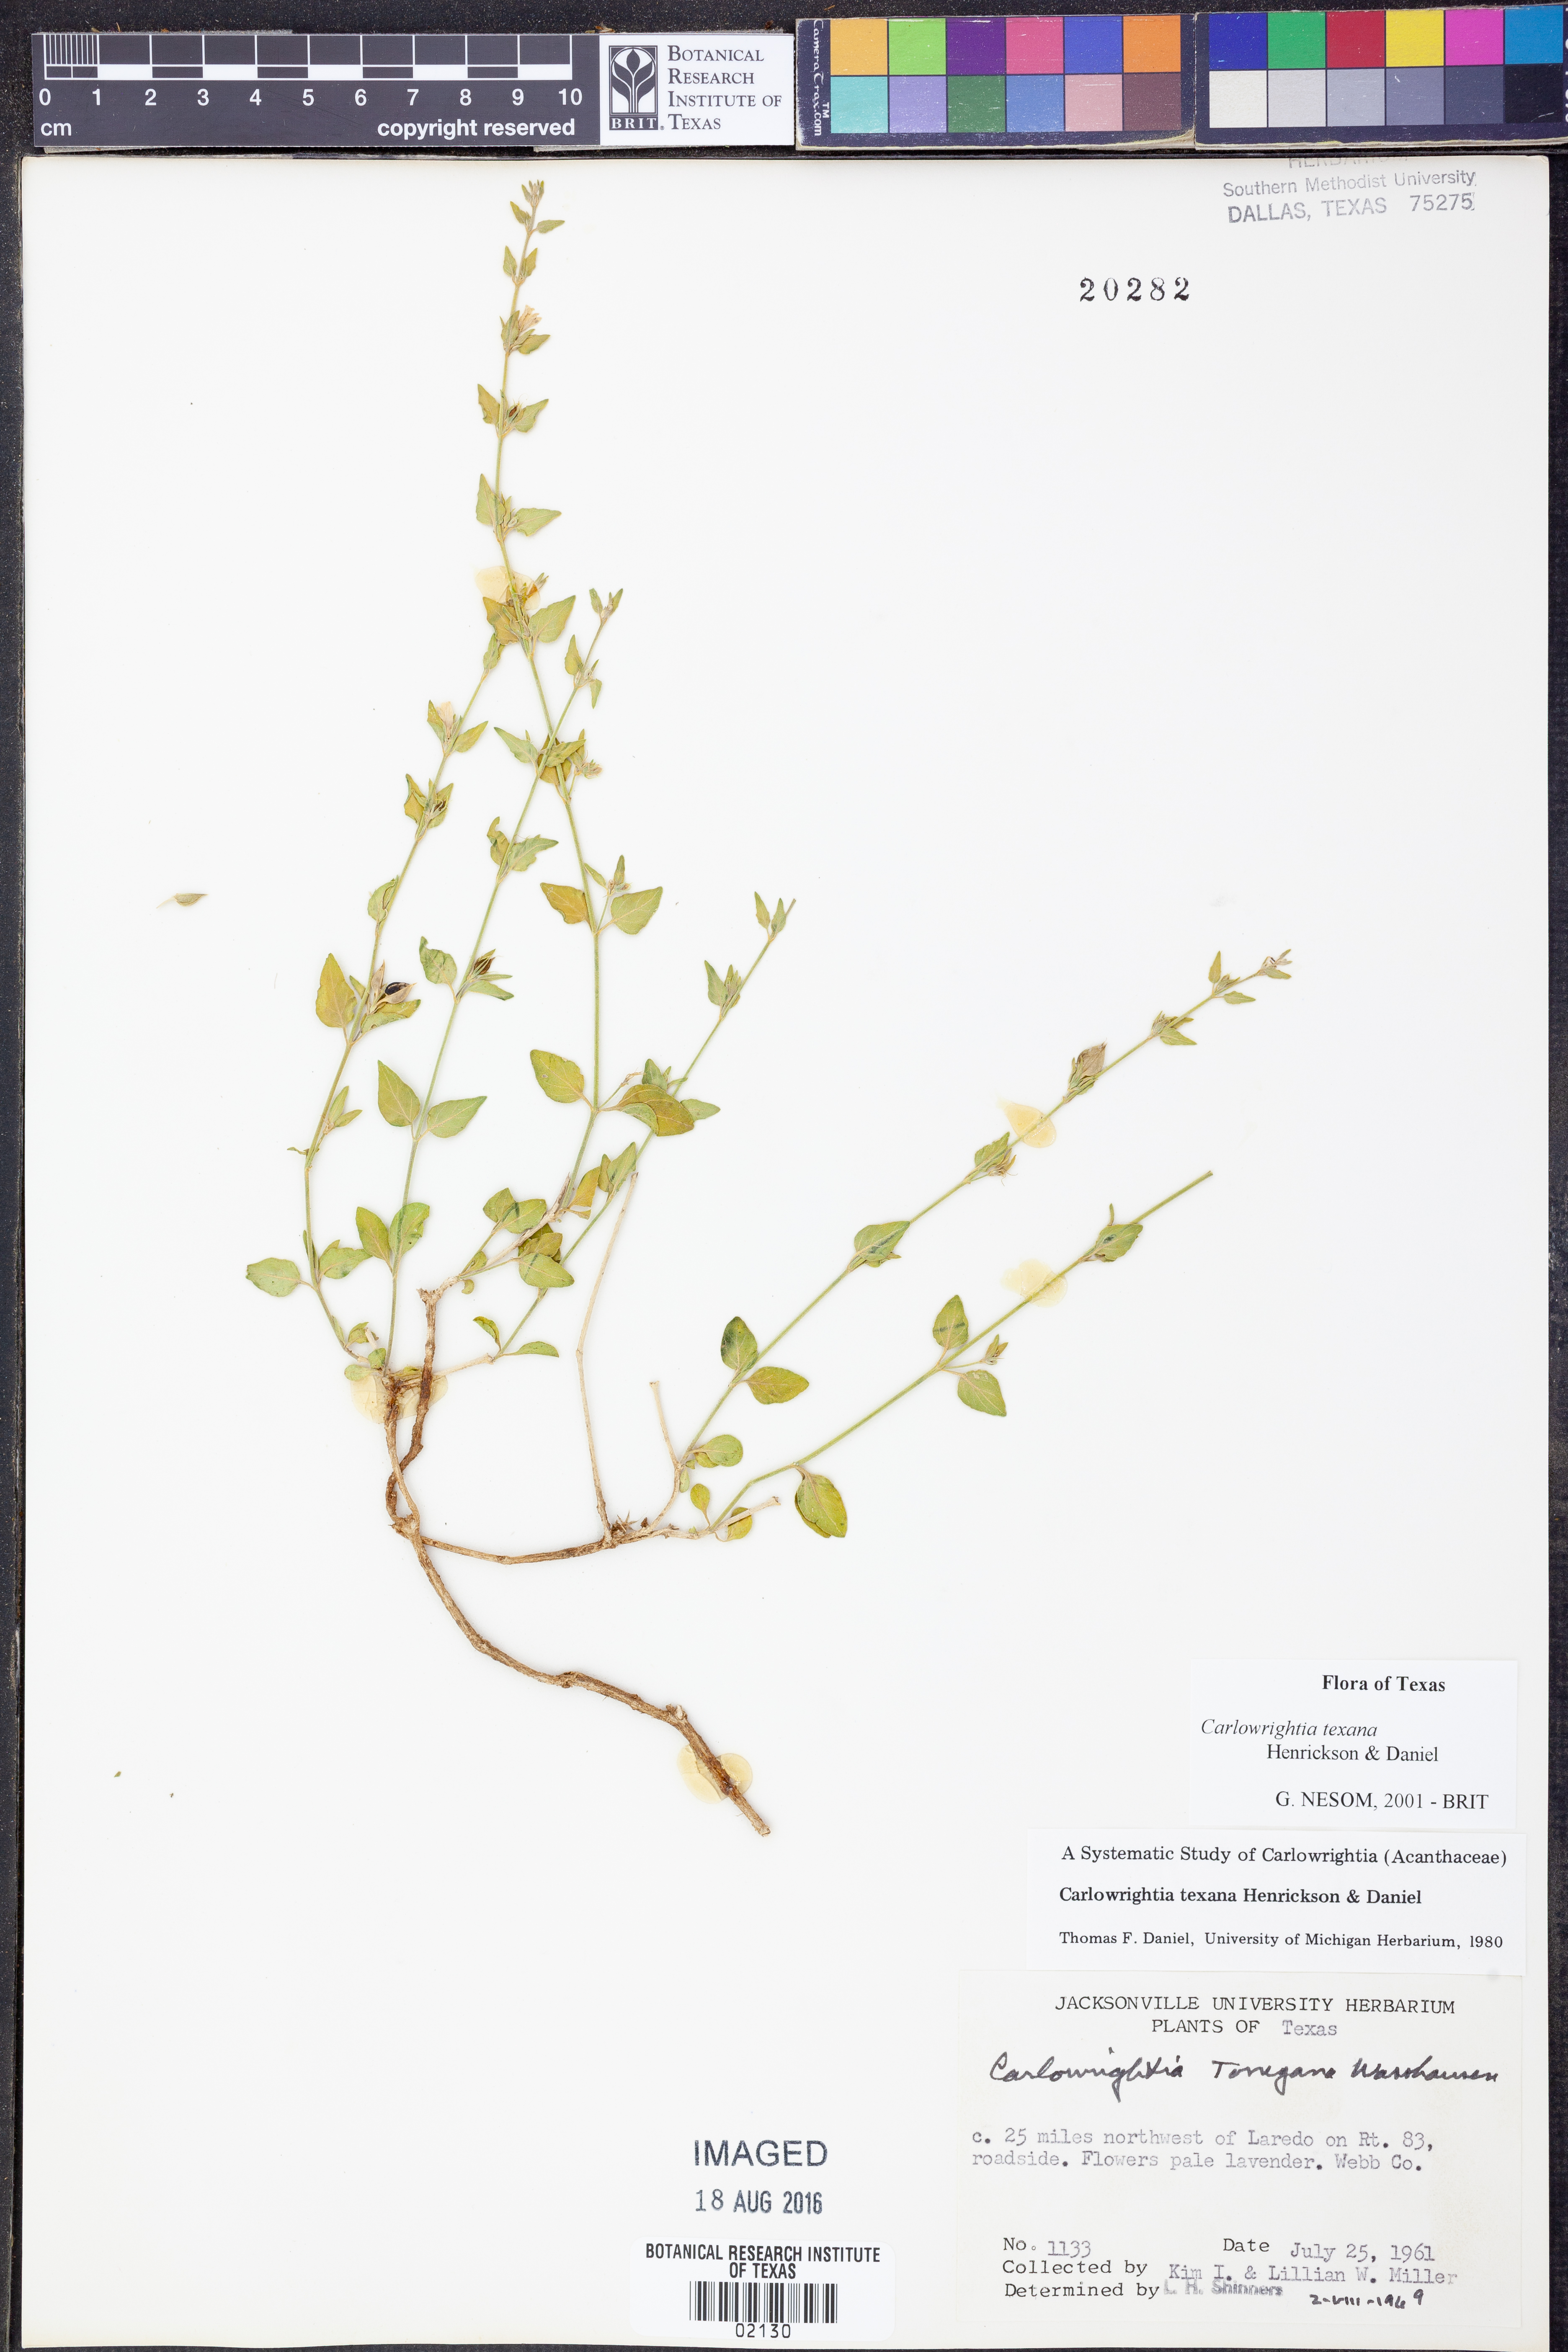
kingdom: Plantae
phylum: Tracheophyta
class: Magnoliopsida
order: Lamiales
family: Acanthaceae
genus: Carlowrightia
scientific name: Carlowrightia texana
